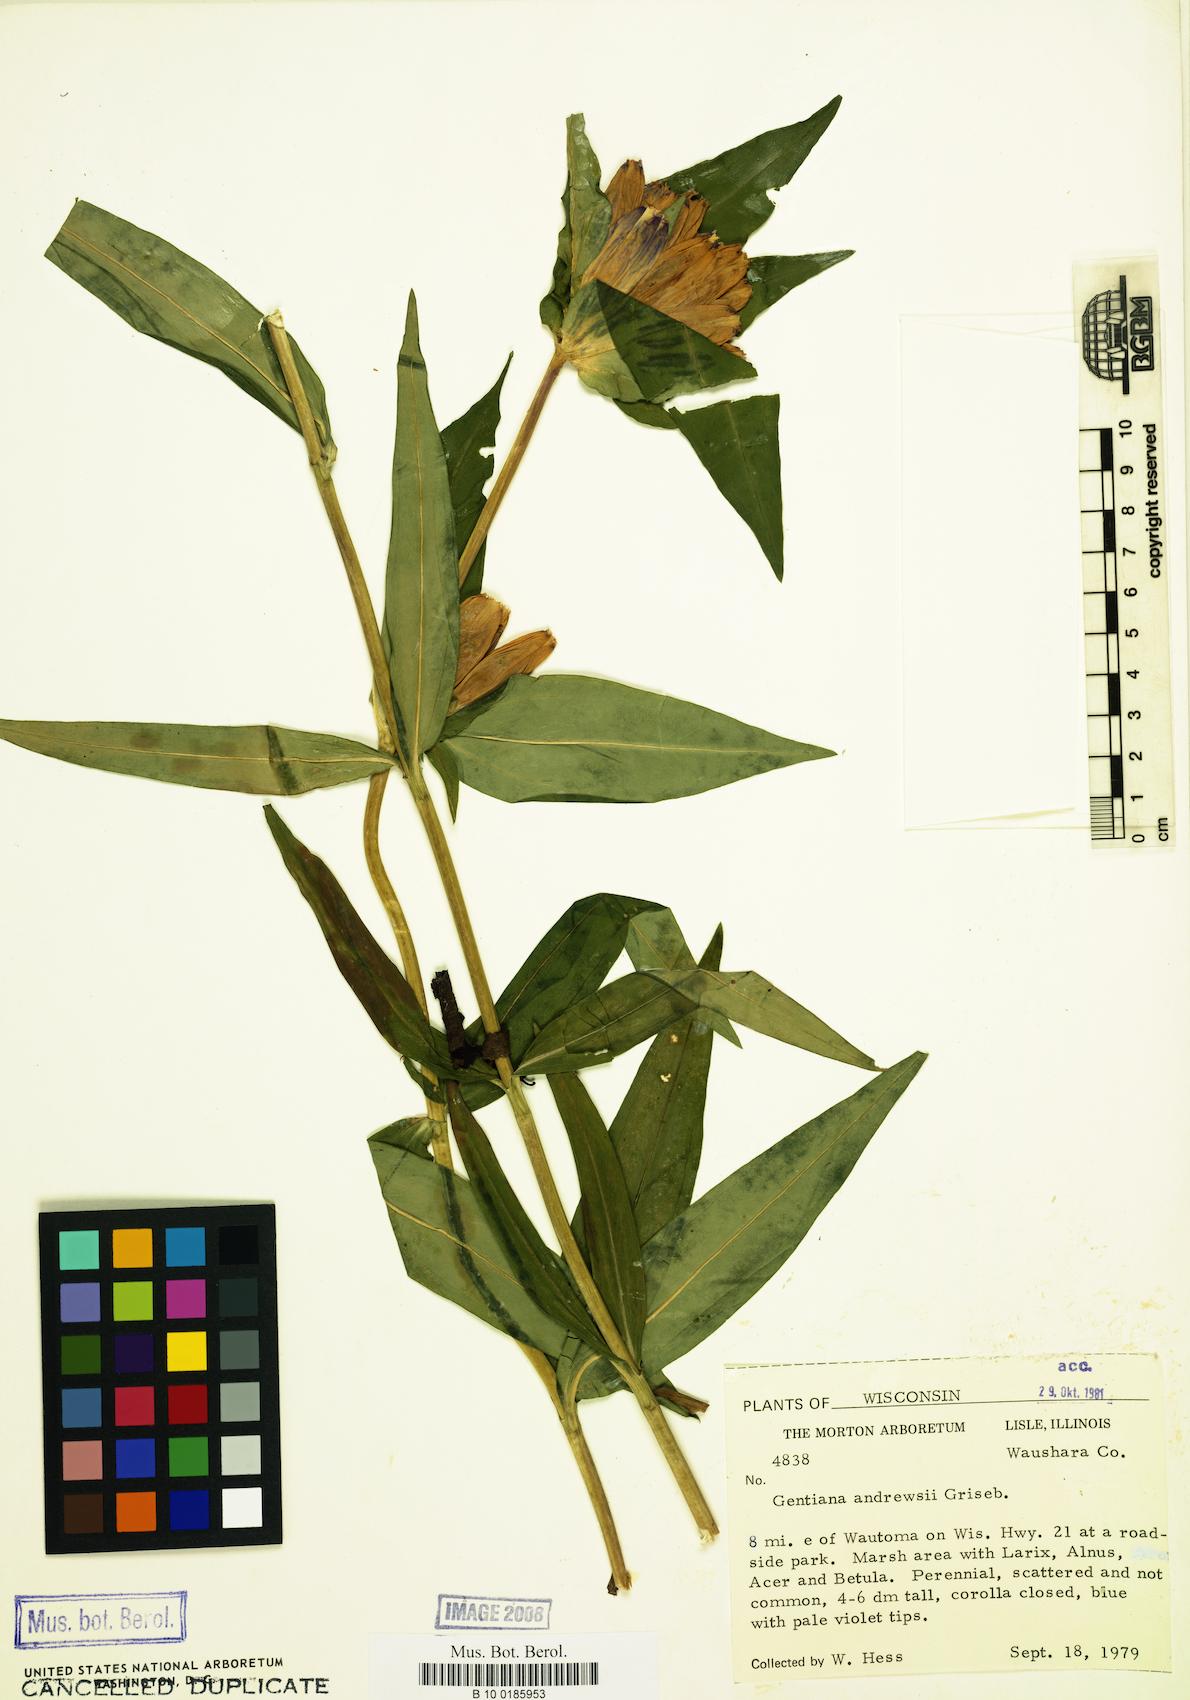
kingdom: Plantae
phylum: Tracheophyta
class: Magnoliopsida
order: Gentianales
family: Gentianaceae
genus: Gentiana
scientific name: Gentiana andrewsii
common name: Bottle gentian
